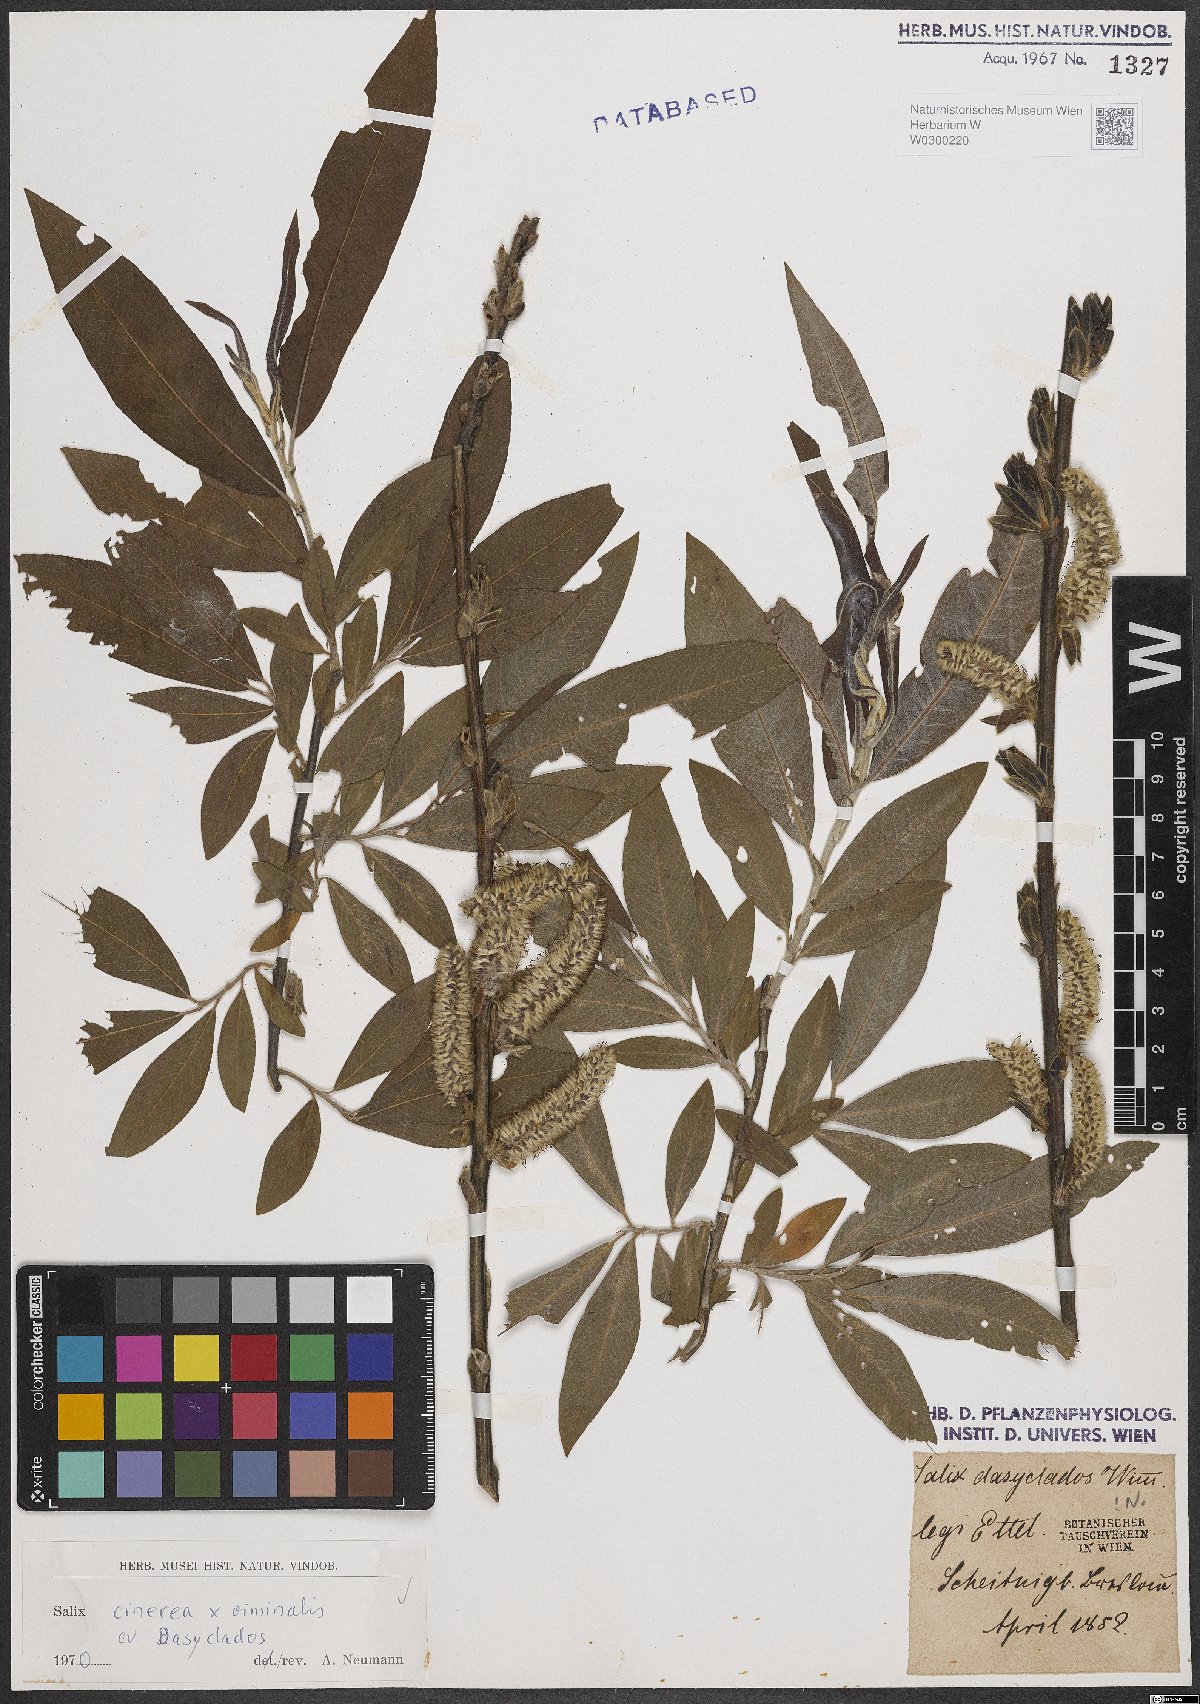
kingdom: Plantae
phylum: Tracheophyta
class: Magnoliopsida
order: Malpighiales
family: Salicaceae
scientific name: Salicaceae
